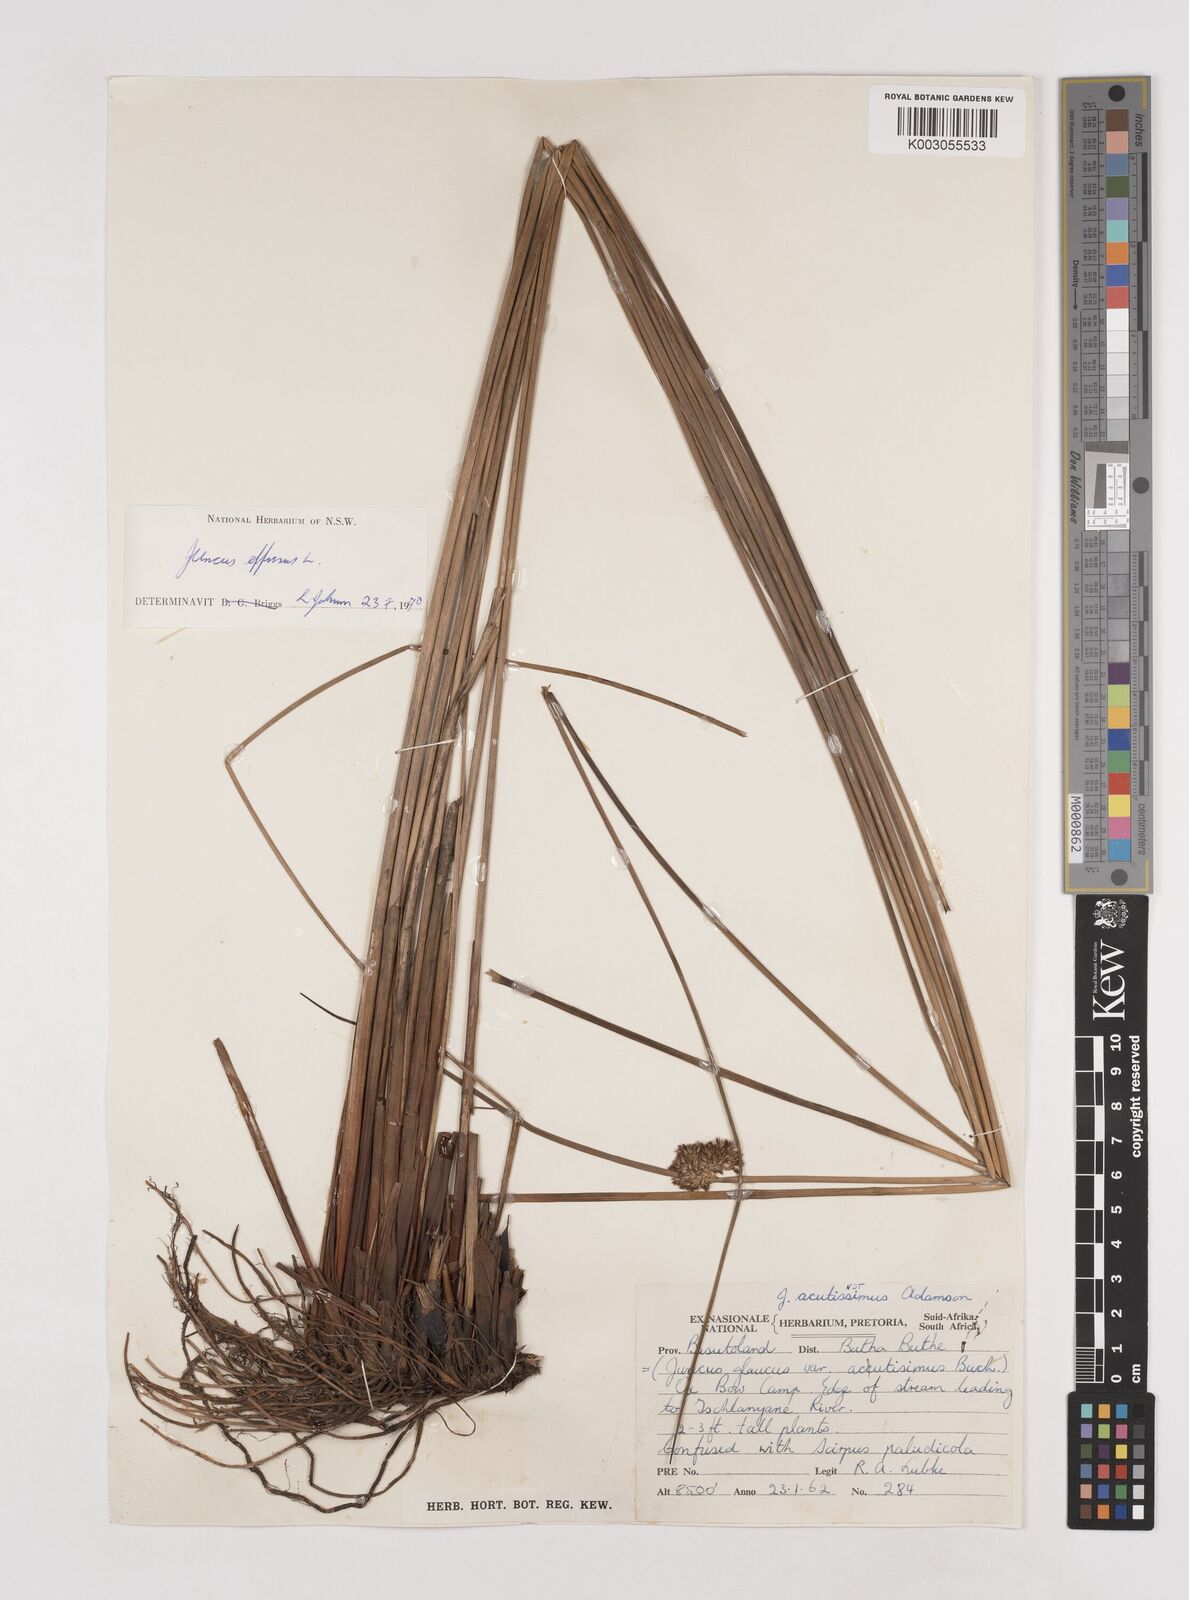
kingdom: Plantae
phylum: Tracheophyta
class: Liliopsida
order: Poales
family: Juncaceae
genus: Juncus
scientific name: Juncus effusus
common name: Soft rush
